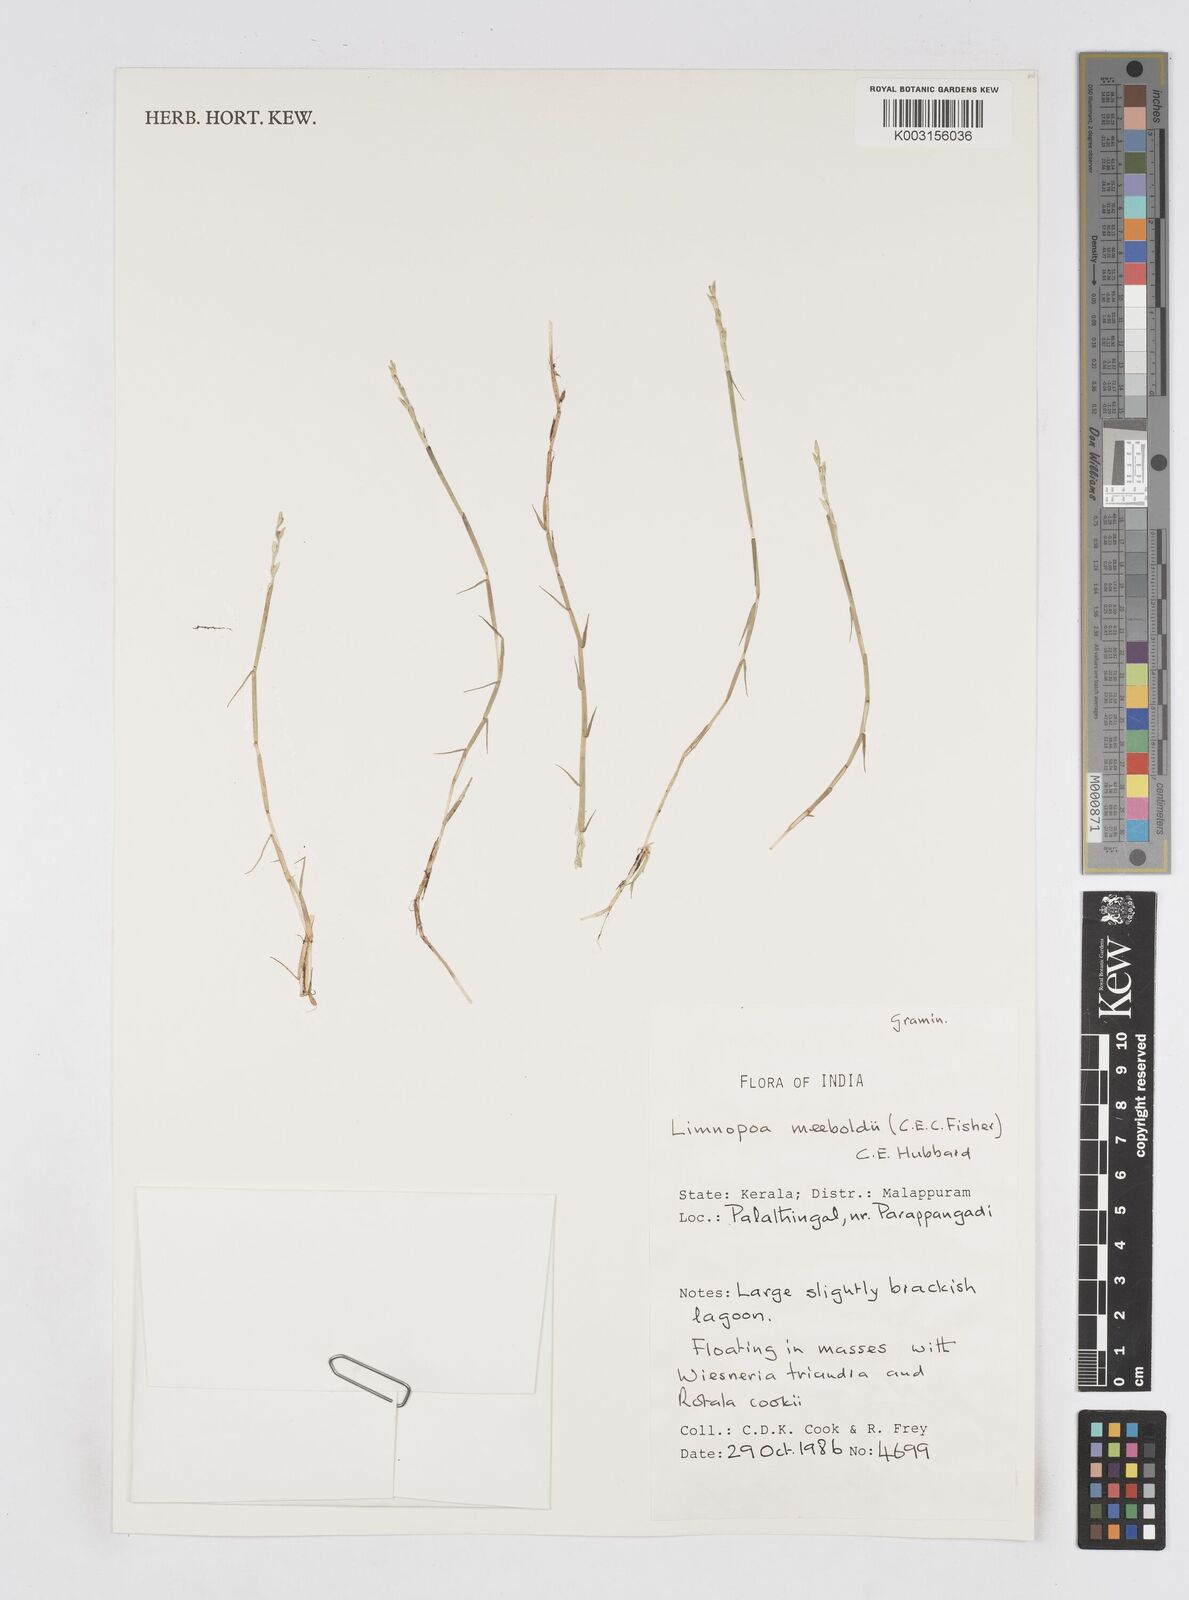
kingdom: Plantae
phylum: Tracheophyta
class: Liliopsida
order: Poales
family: Poaceae
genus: Limnopoa
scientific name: Limnopoa meeboldii
